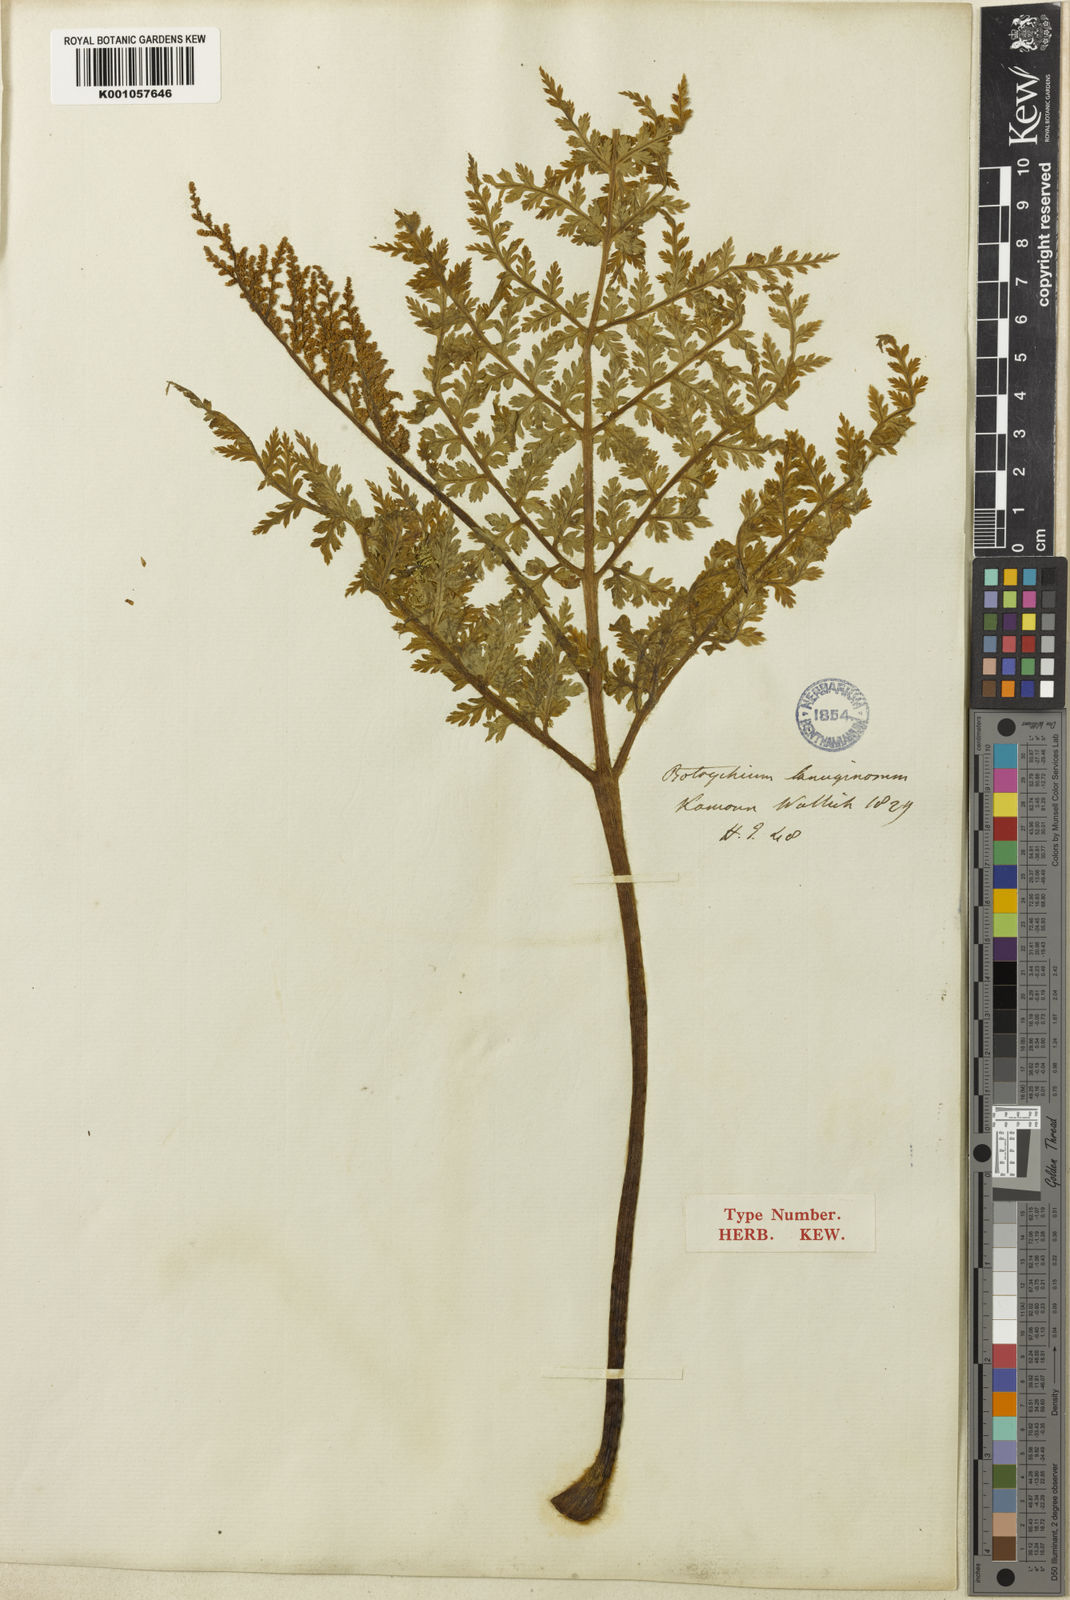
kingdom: Plantae
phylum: Tracheophyta
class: Polypodiopsida
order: Ophioglossales
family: Ophioglossaceae
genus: Japanobotrychum
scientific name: Japanobotrychum lanuginosum
